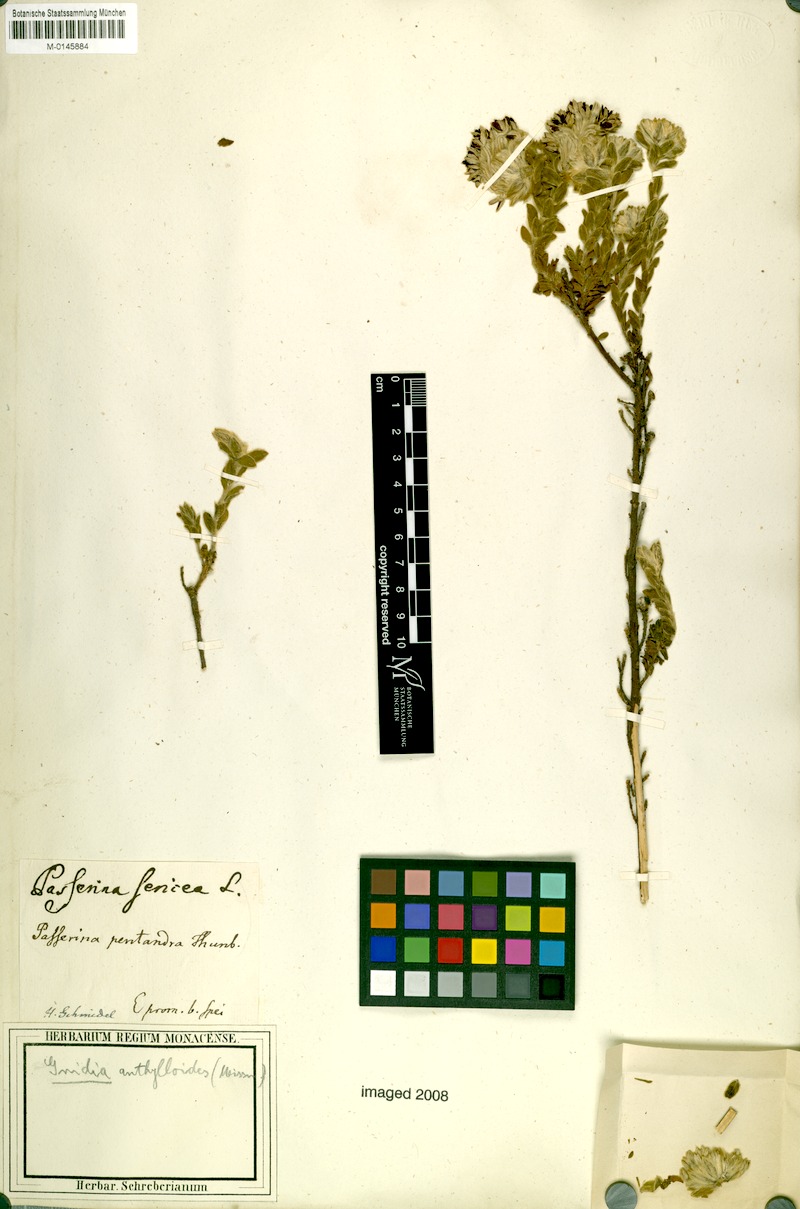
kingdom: Plantae
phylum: Tracheophyta
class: Magnoliopsida
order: Malvales
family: Thymelaeaceae
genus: Gnidia
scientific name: Gnidia anthylloides
